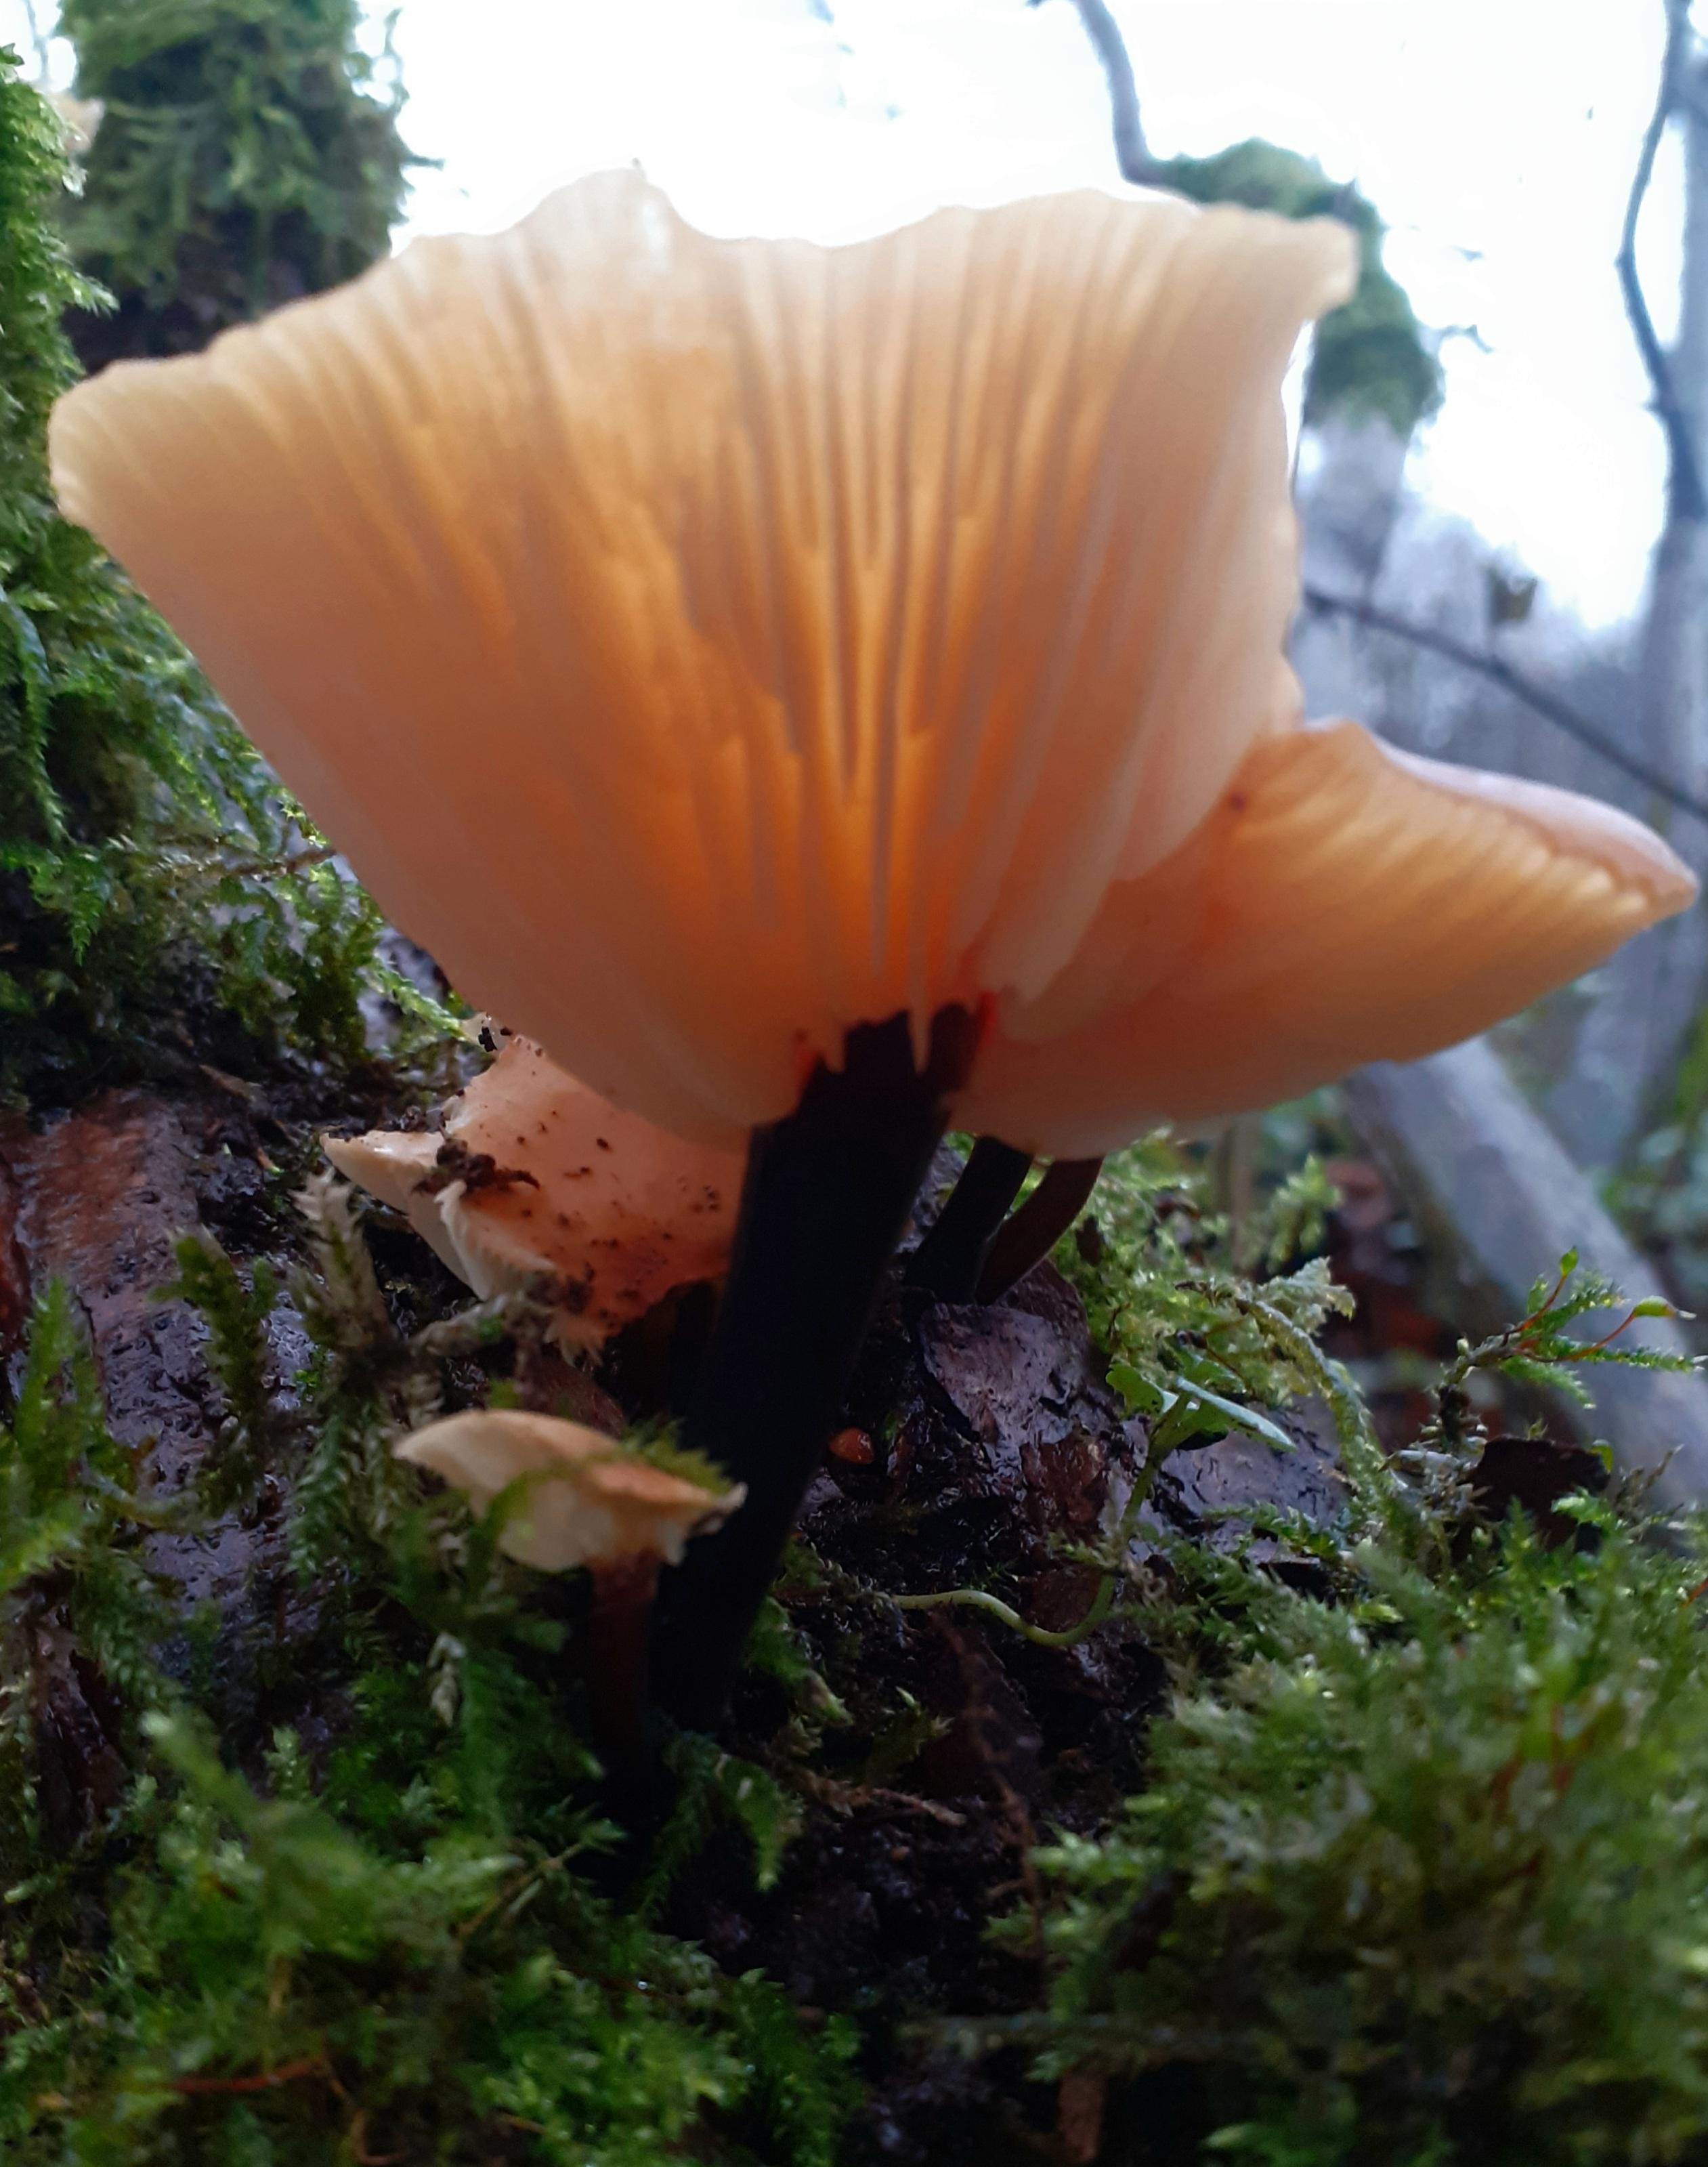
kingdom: Fungi
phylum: Basidiomycota
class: Agaricomycetes
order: Agaricales
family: Physalacriaceae
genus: Flammulina
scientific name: Flammulina elastica
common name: pile-fløjlsfod
